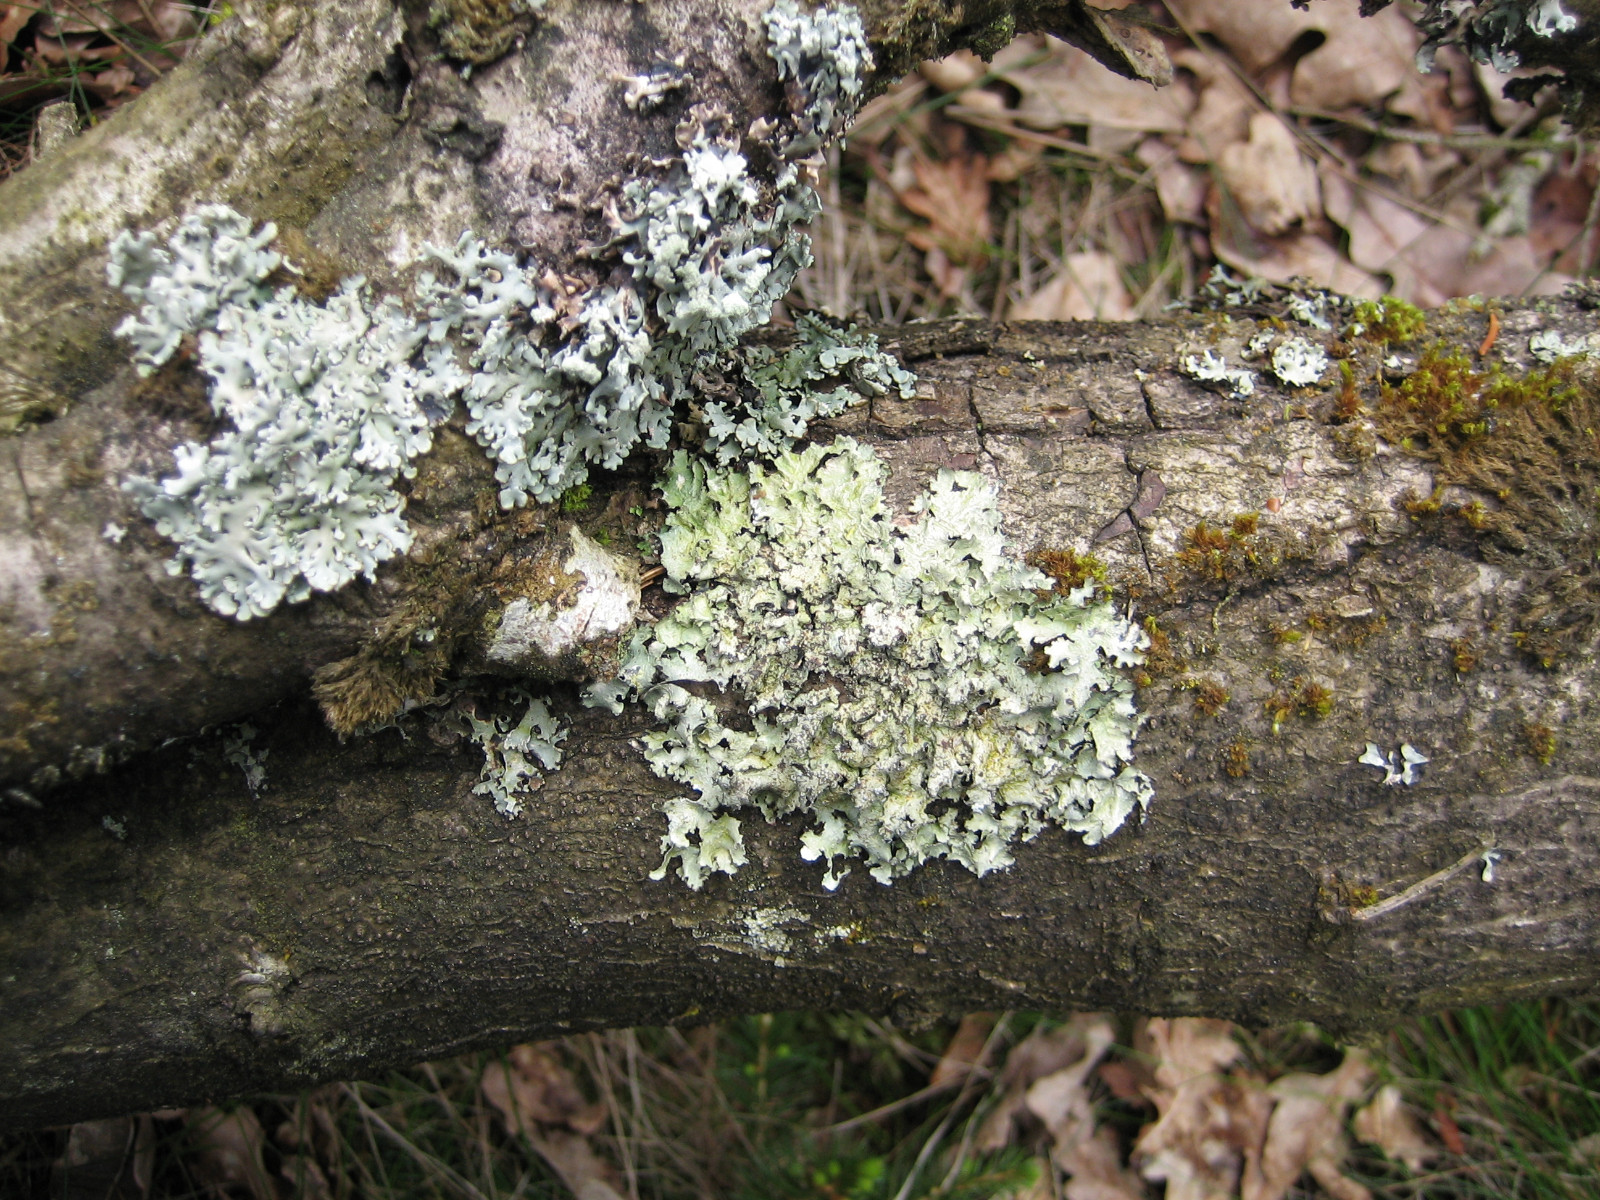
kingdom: Fungi
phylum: Ascomycota
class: Lecanoromycetes
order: Lecanorales
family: Parmeliaceae
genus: Punctelia
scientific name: Punctelia jeckeri
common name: randstøvet skållav
